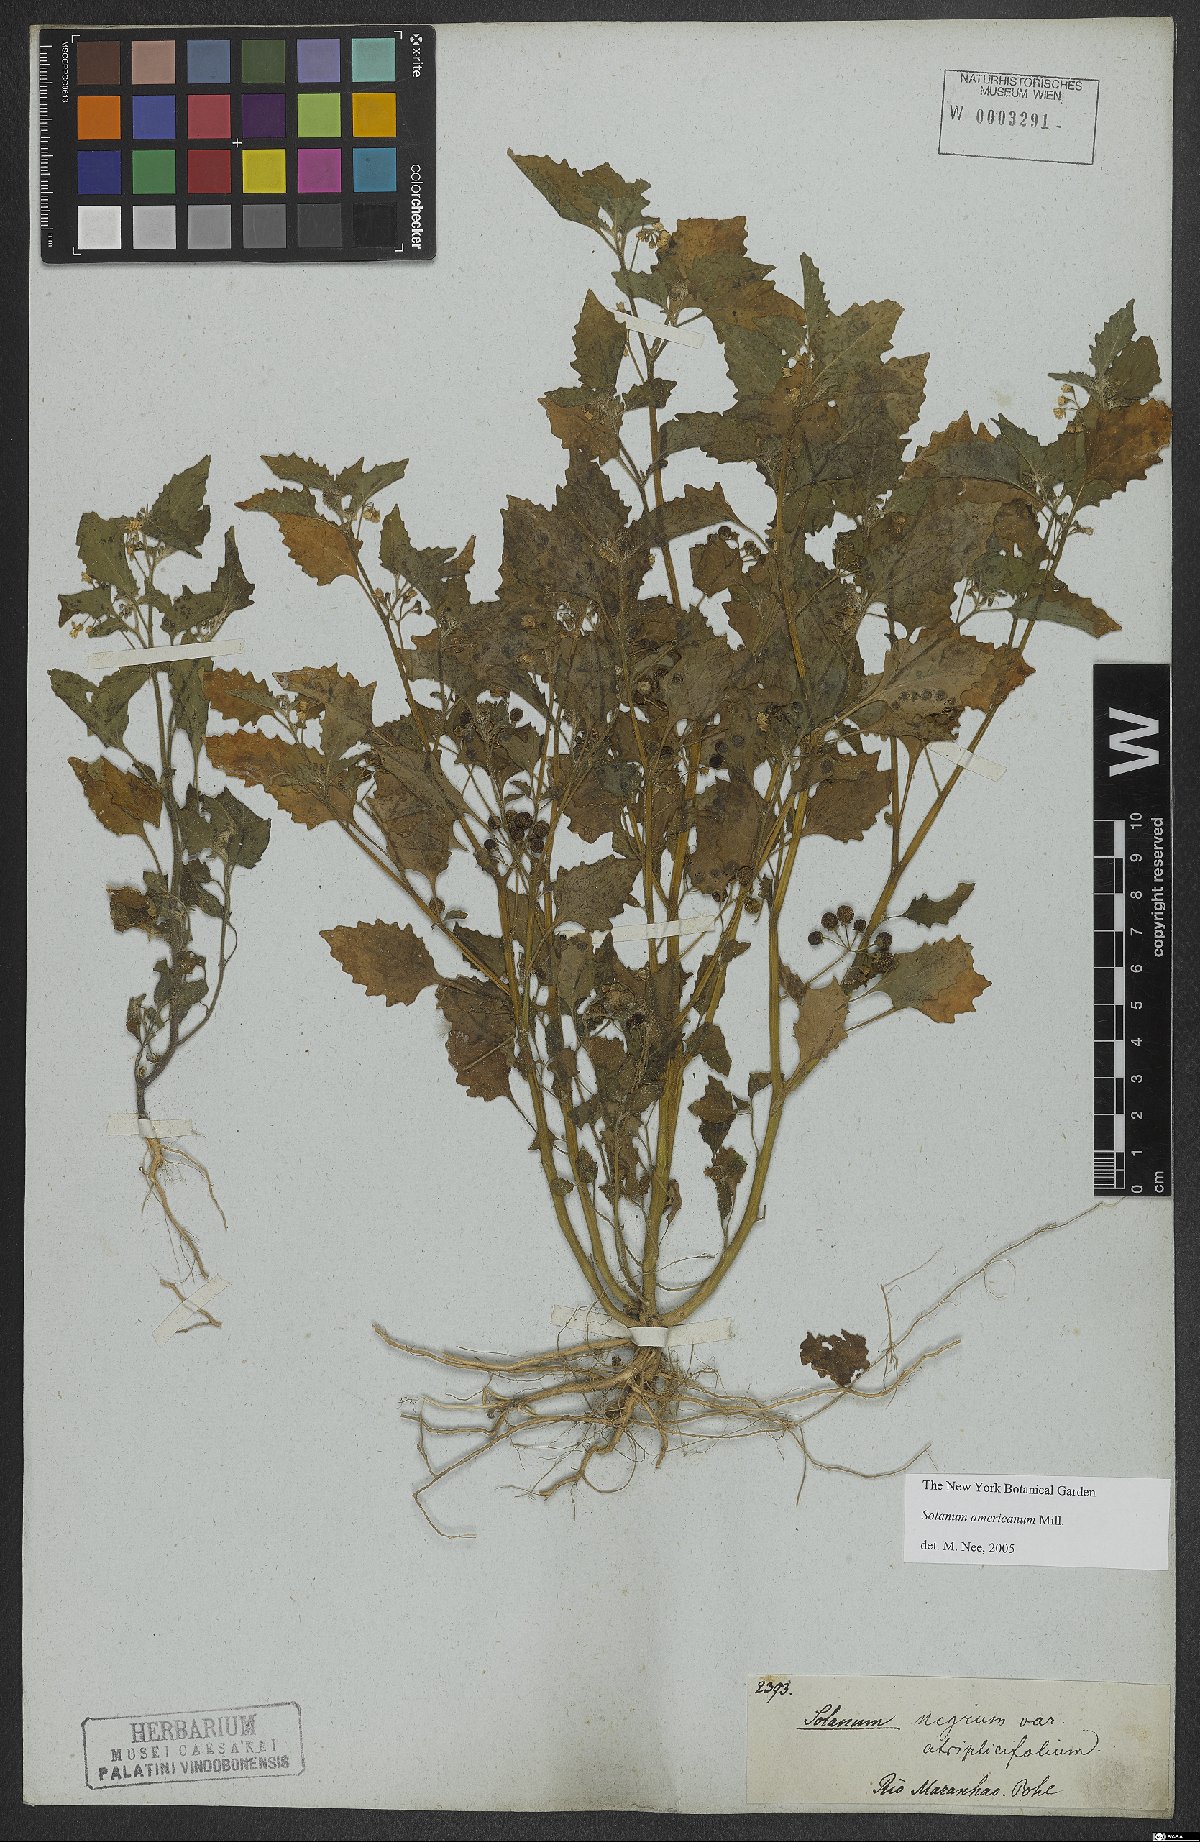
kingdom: Plantae
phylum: Tracheophyta
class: Magnoliopsida
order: Solanales
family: Solanaceae
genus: Solanum
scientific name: Solanum americanum
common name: American black nightshade
